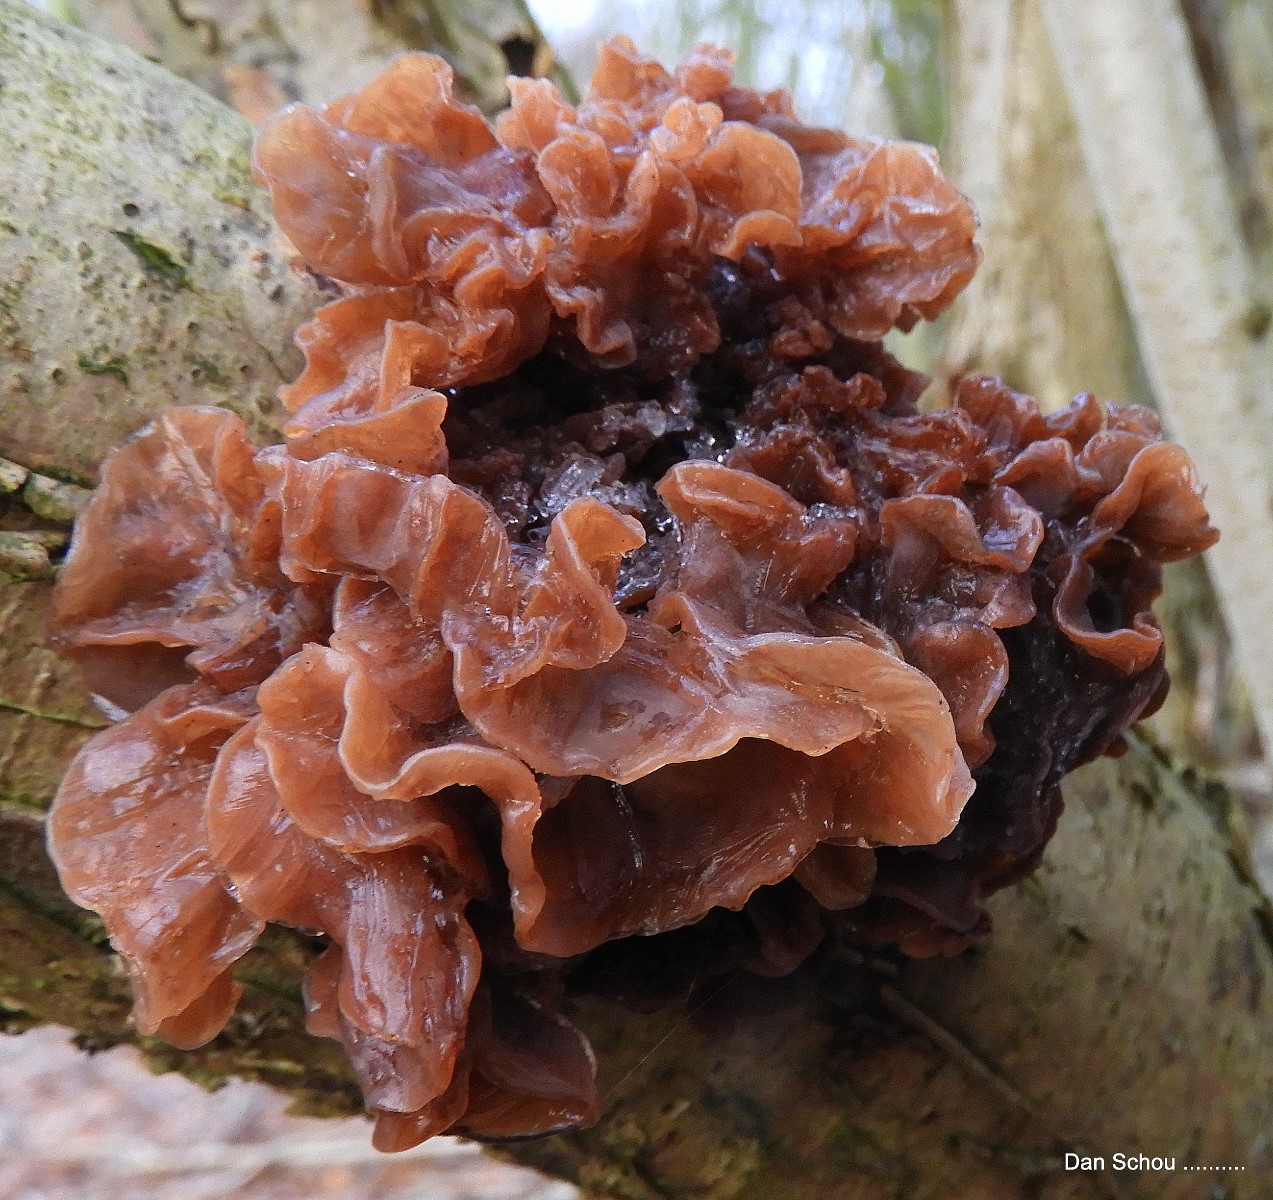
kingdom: Fungi
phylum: Basidiomycota
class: Tremellomycetes
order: Tremellales
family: Tremellaceae
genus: Phaeotremella
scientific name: Phaeotremella frondosa
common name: kæmpe-bævresvamp
